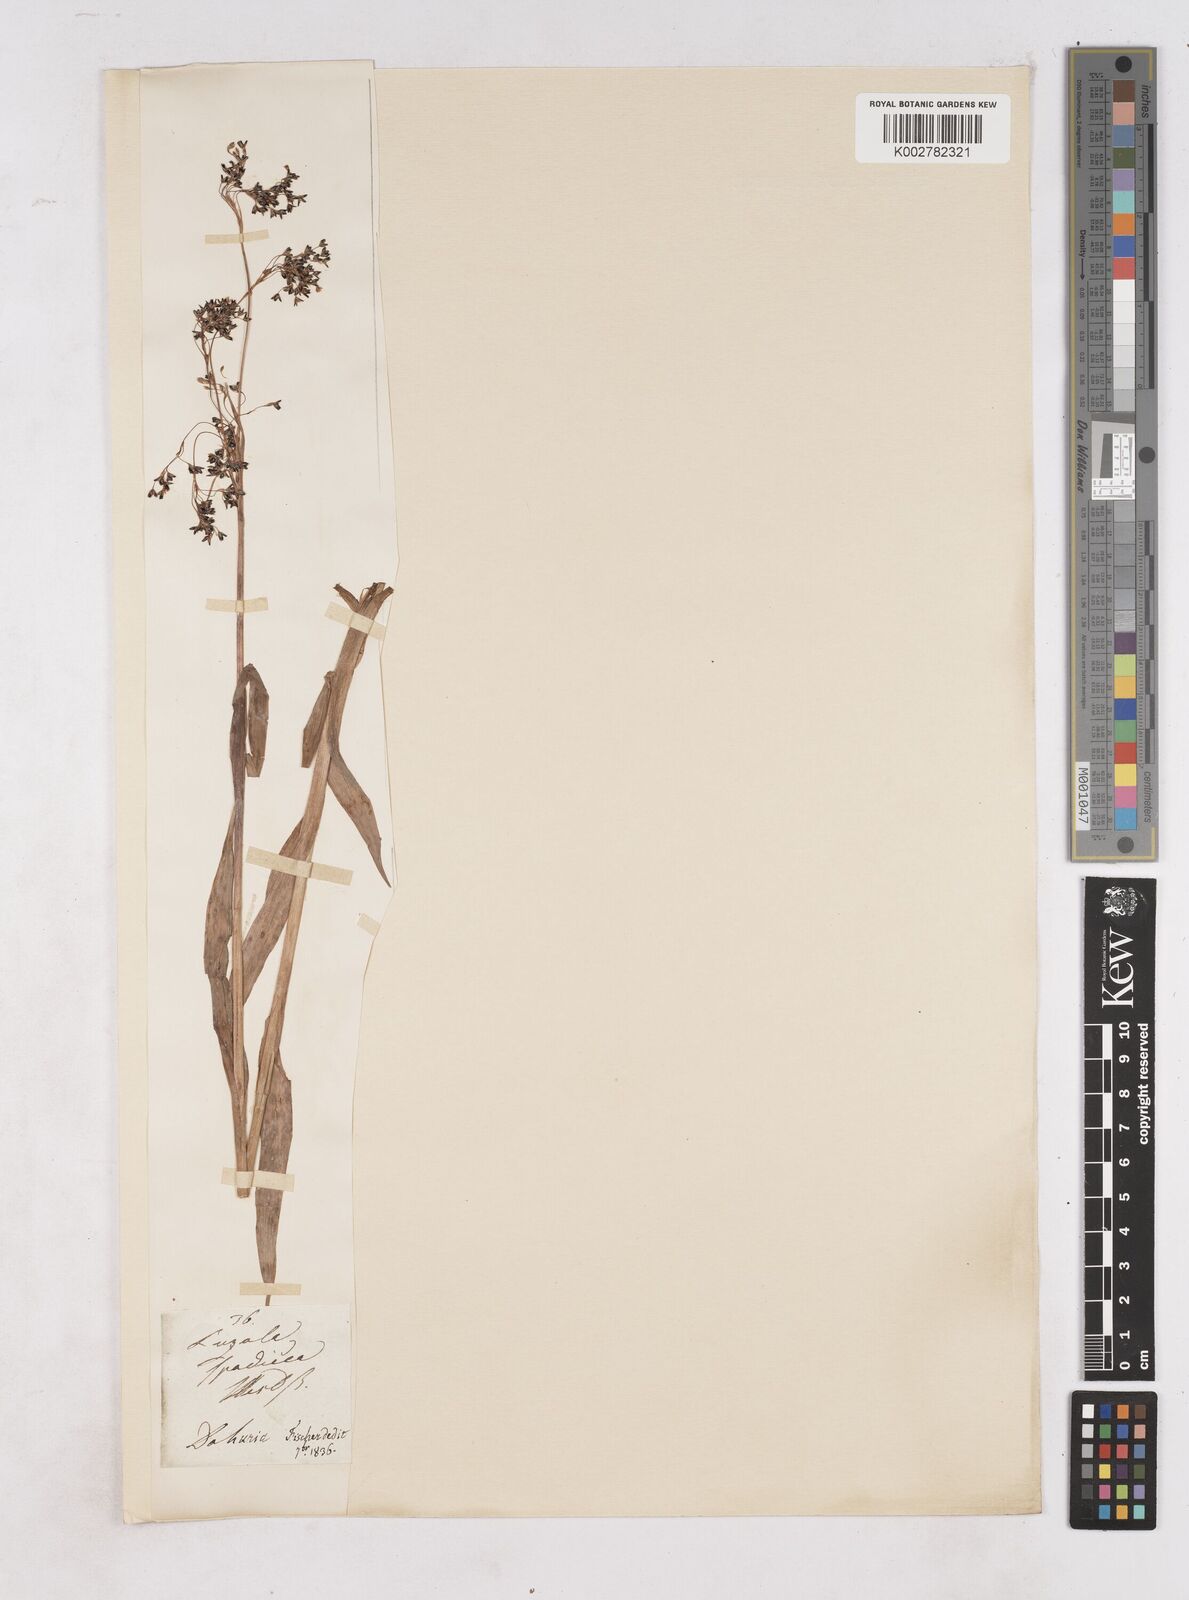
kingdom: Plantae
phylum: Tracheophyta
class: Liliopsida
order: Poales
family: Juncaceae
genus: Luzula
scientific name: Luzula alpinopilosa
